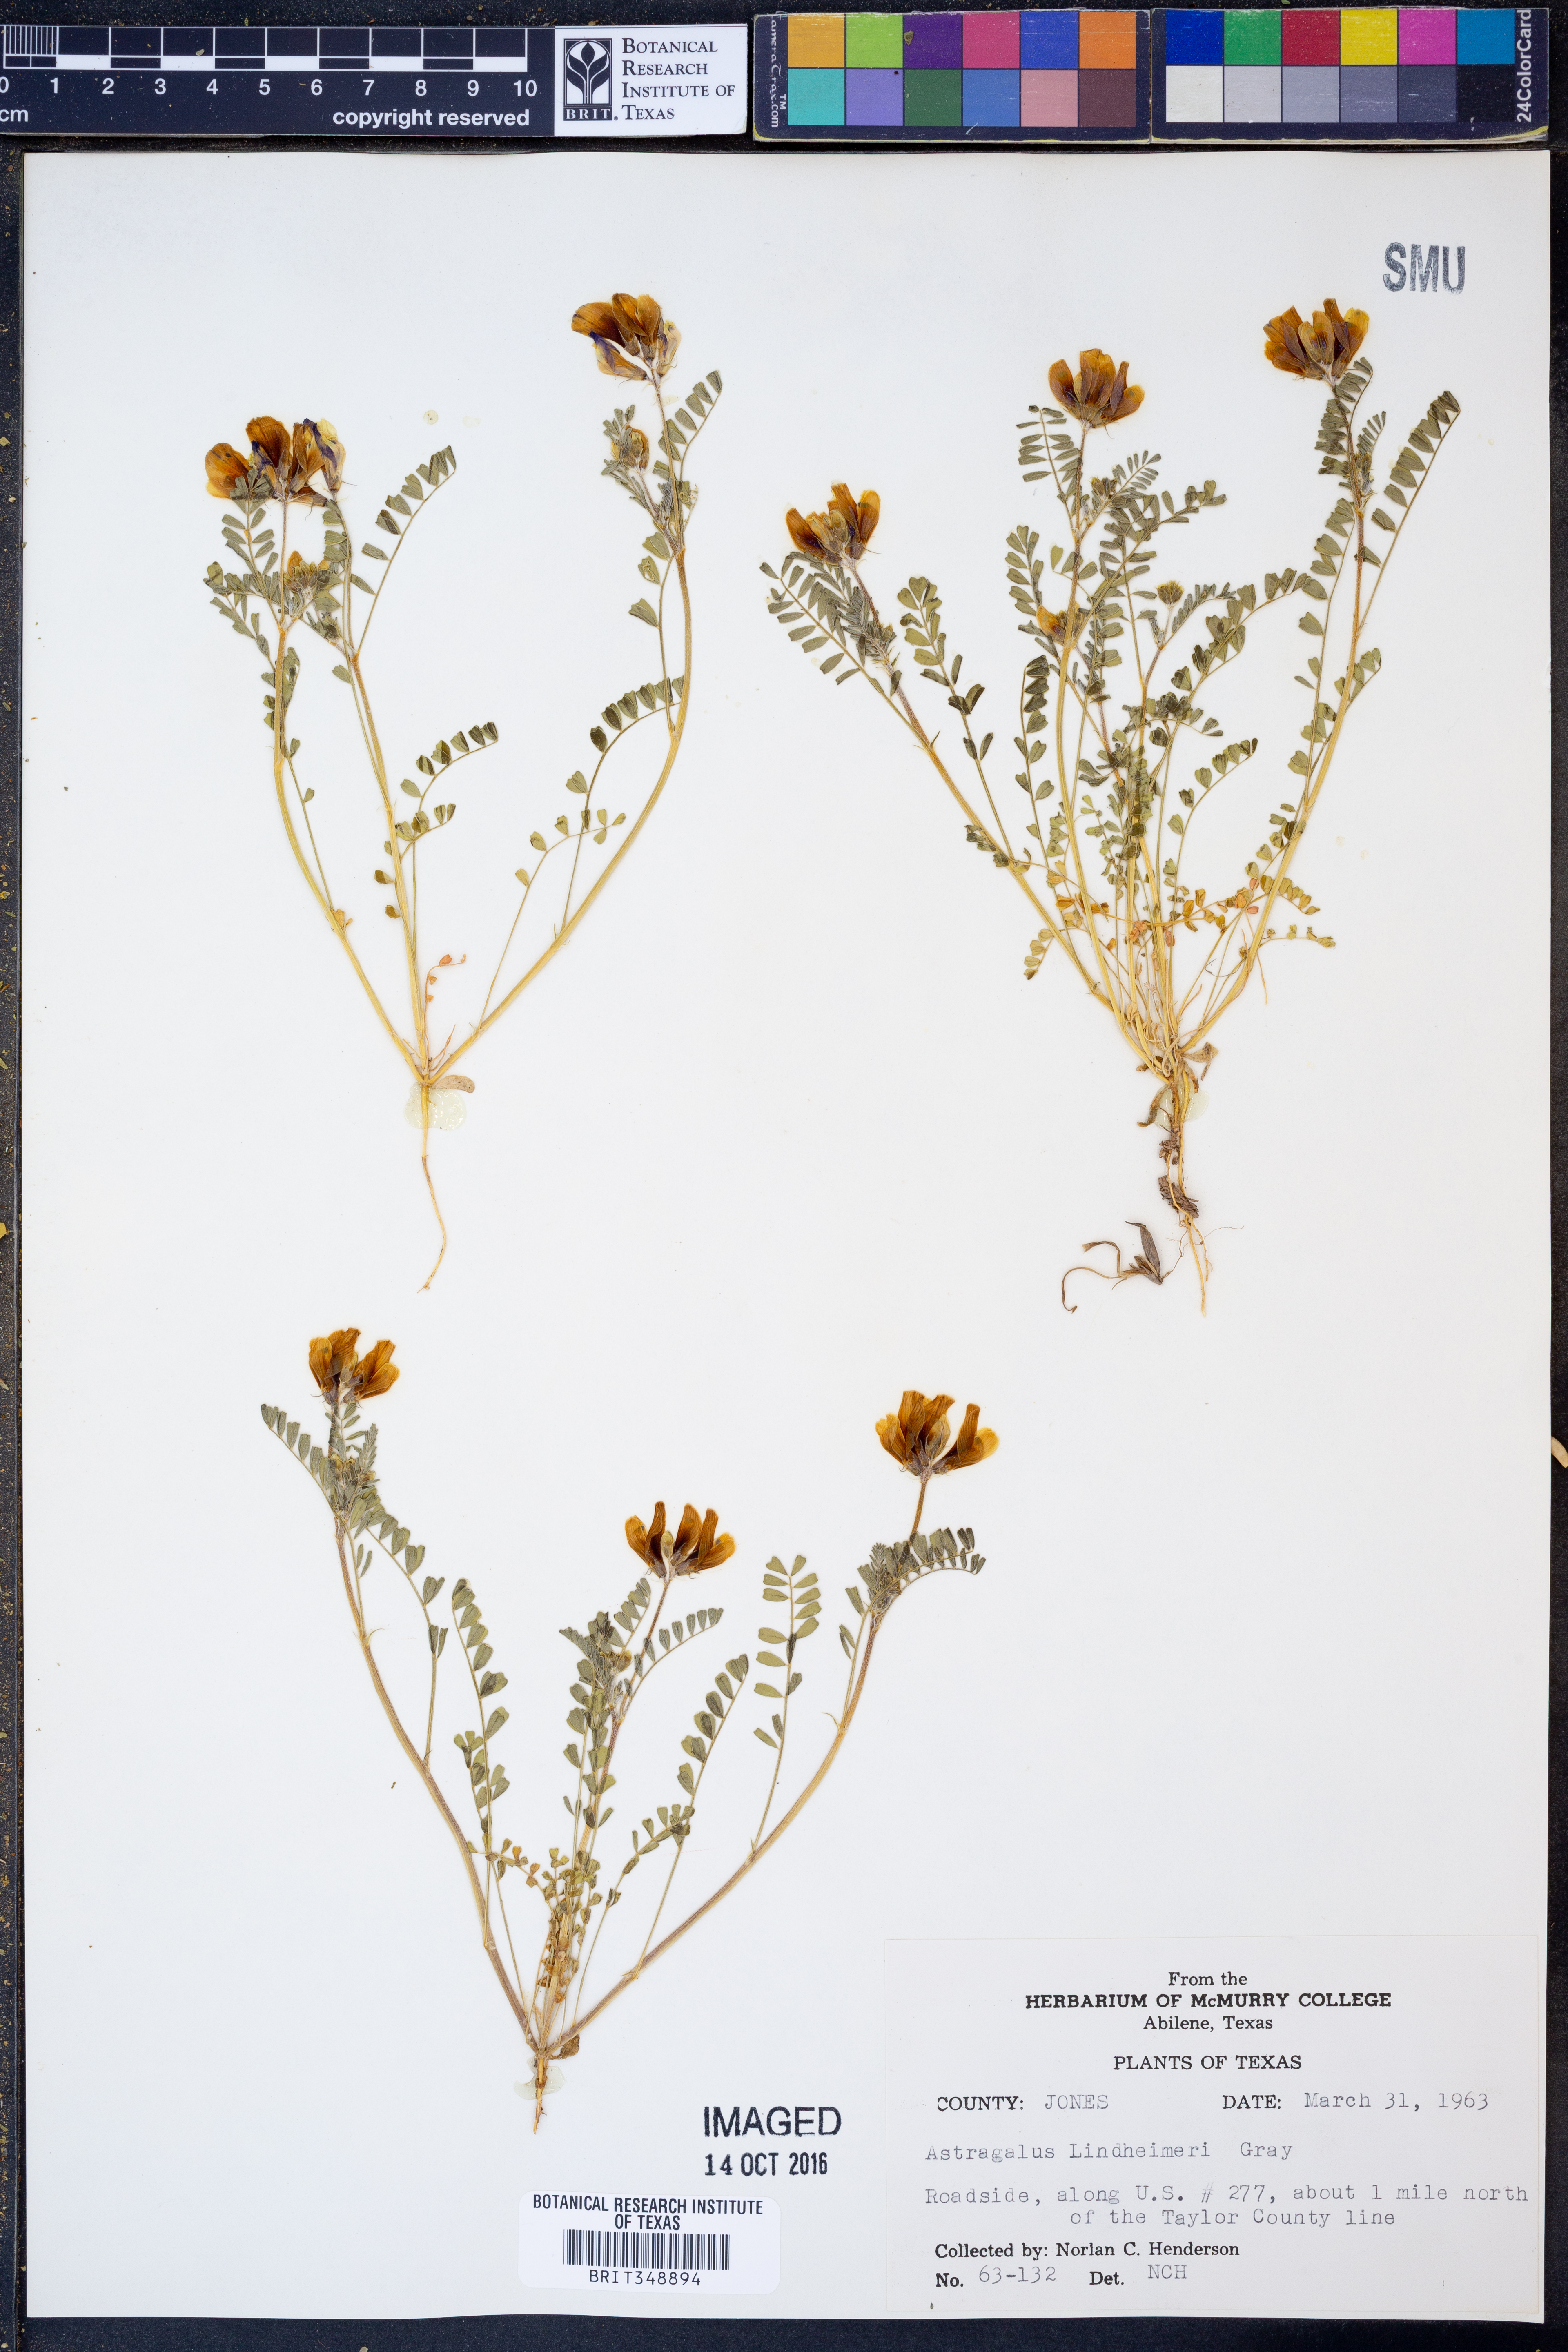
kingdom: Plantae
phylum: Tracheophyta
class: Magnoliopsida
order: Fabales
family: Fabaceae
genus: Astragalus
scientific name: Astragalus lindheimeri
